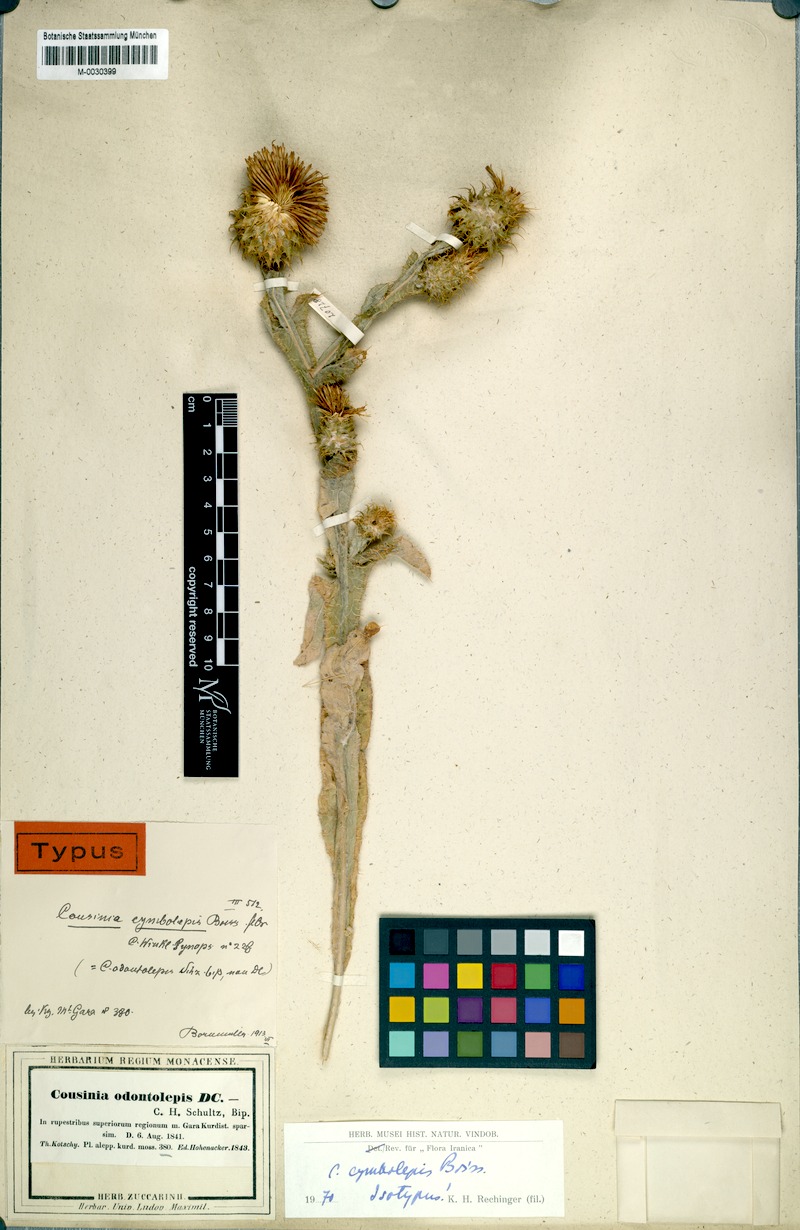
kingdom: Plantae
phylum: Tracheophyta
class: Magnoliopsida
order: Asterales
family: Asteraceae
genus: Cousinia
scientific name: Cousinia odontolepis
